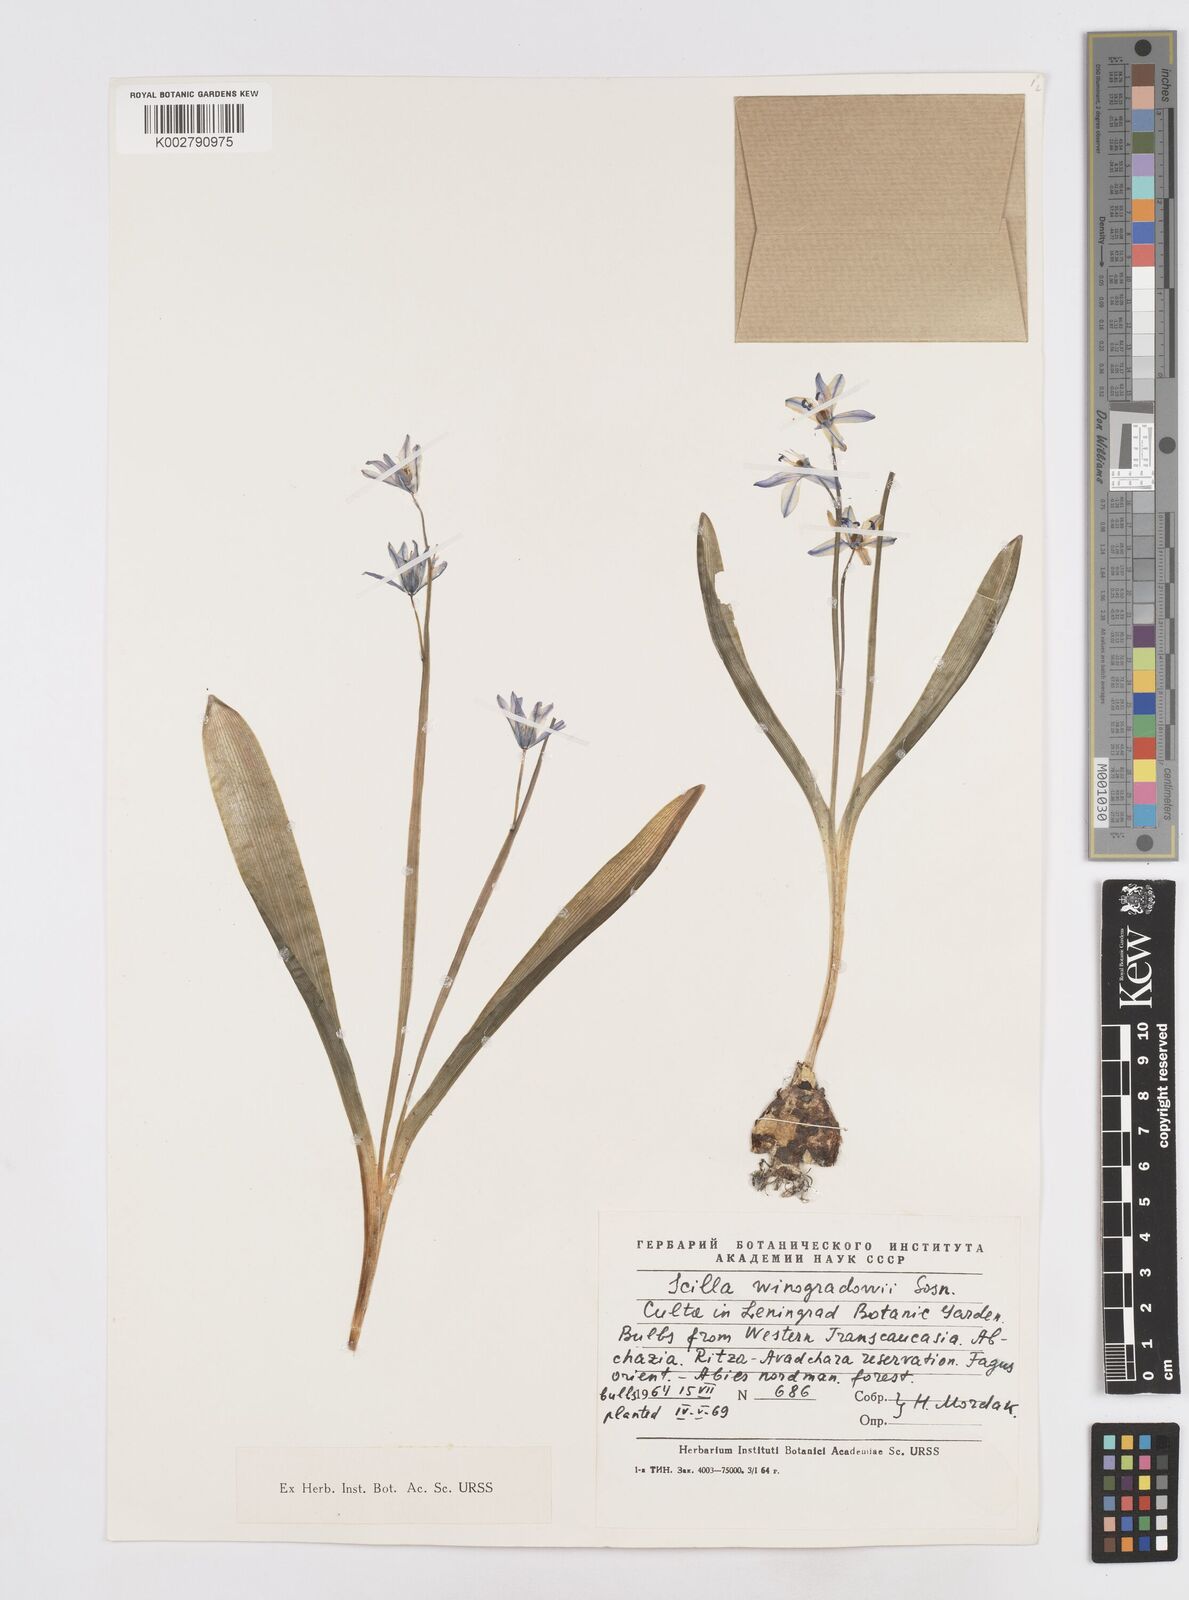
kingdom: Plantae
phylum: Tracheophyta
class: Liliopsida
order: Asparagales
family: Asparagaceae
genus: Scilla
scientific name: Scilla monanthos
